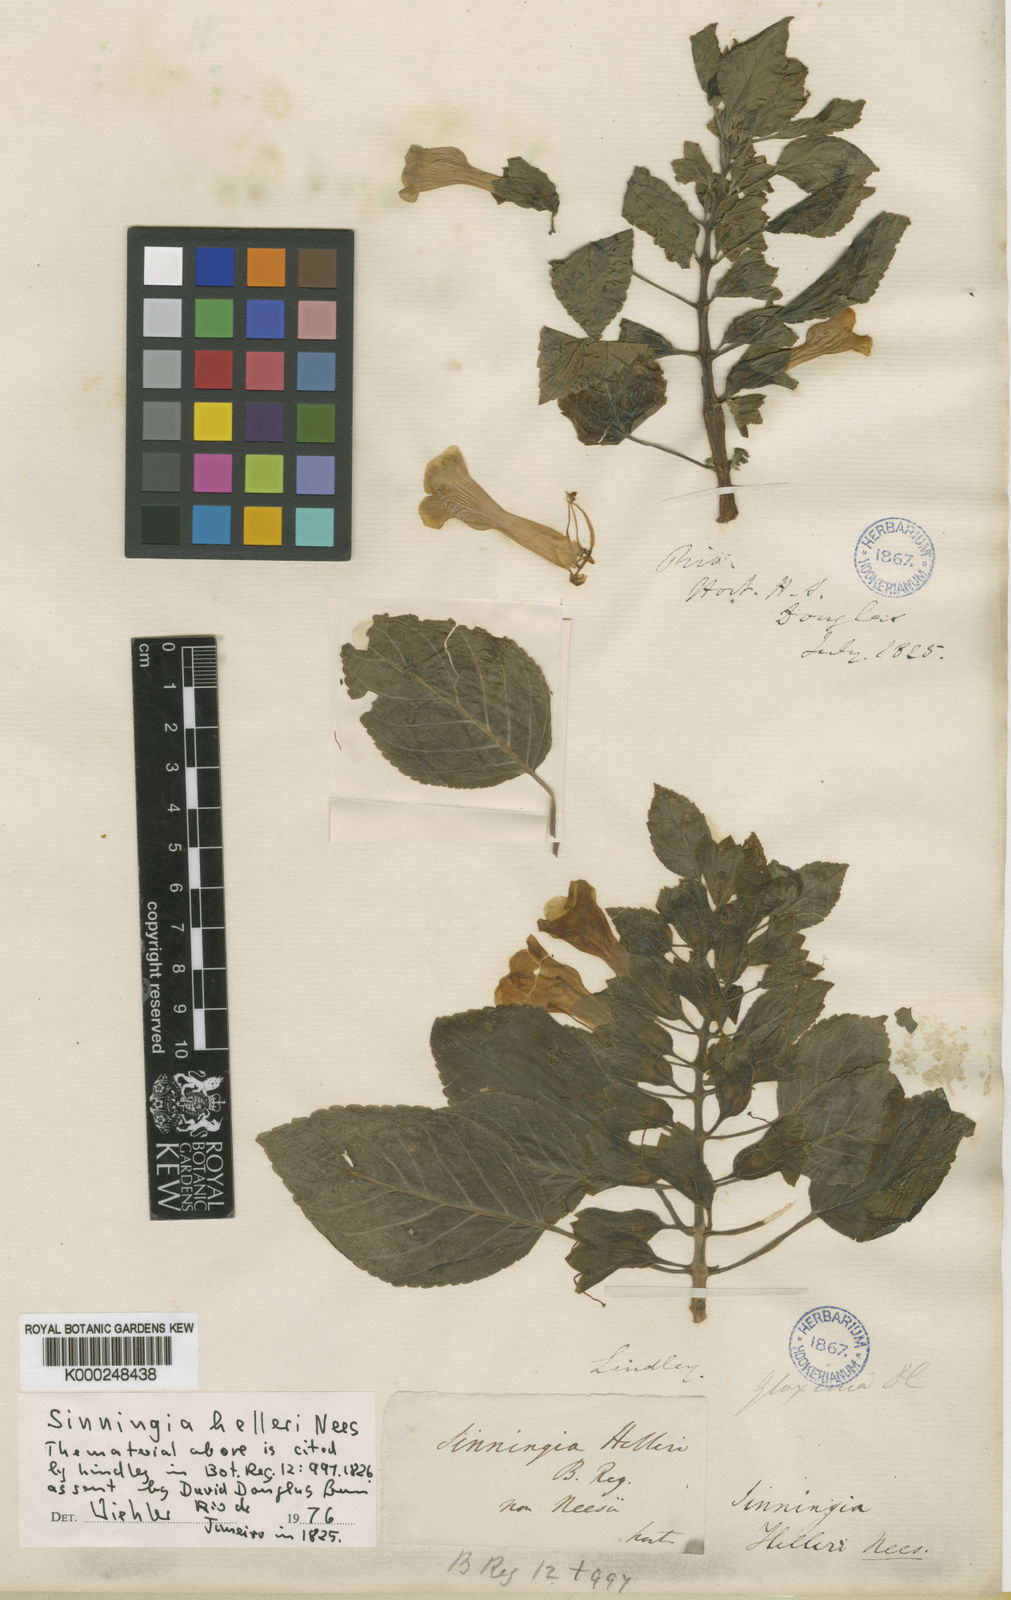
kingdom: Plantae
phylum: Tracheophyta
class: Magnoliopsida
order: Lamiales
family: Gesneriaceae
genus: Sinningia
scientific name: Sinningia helleri
